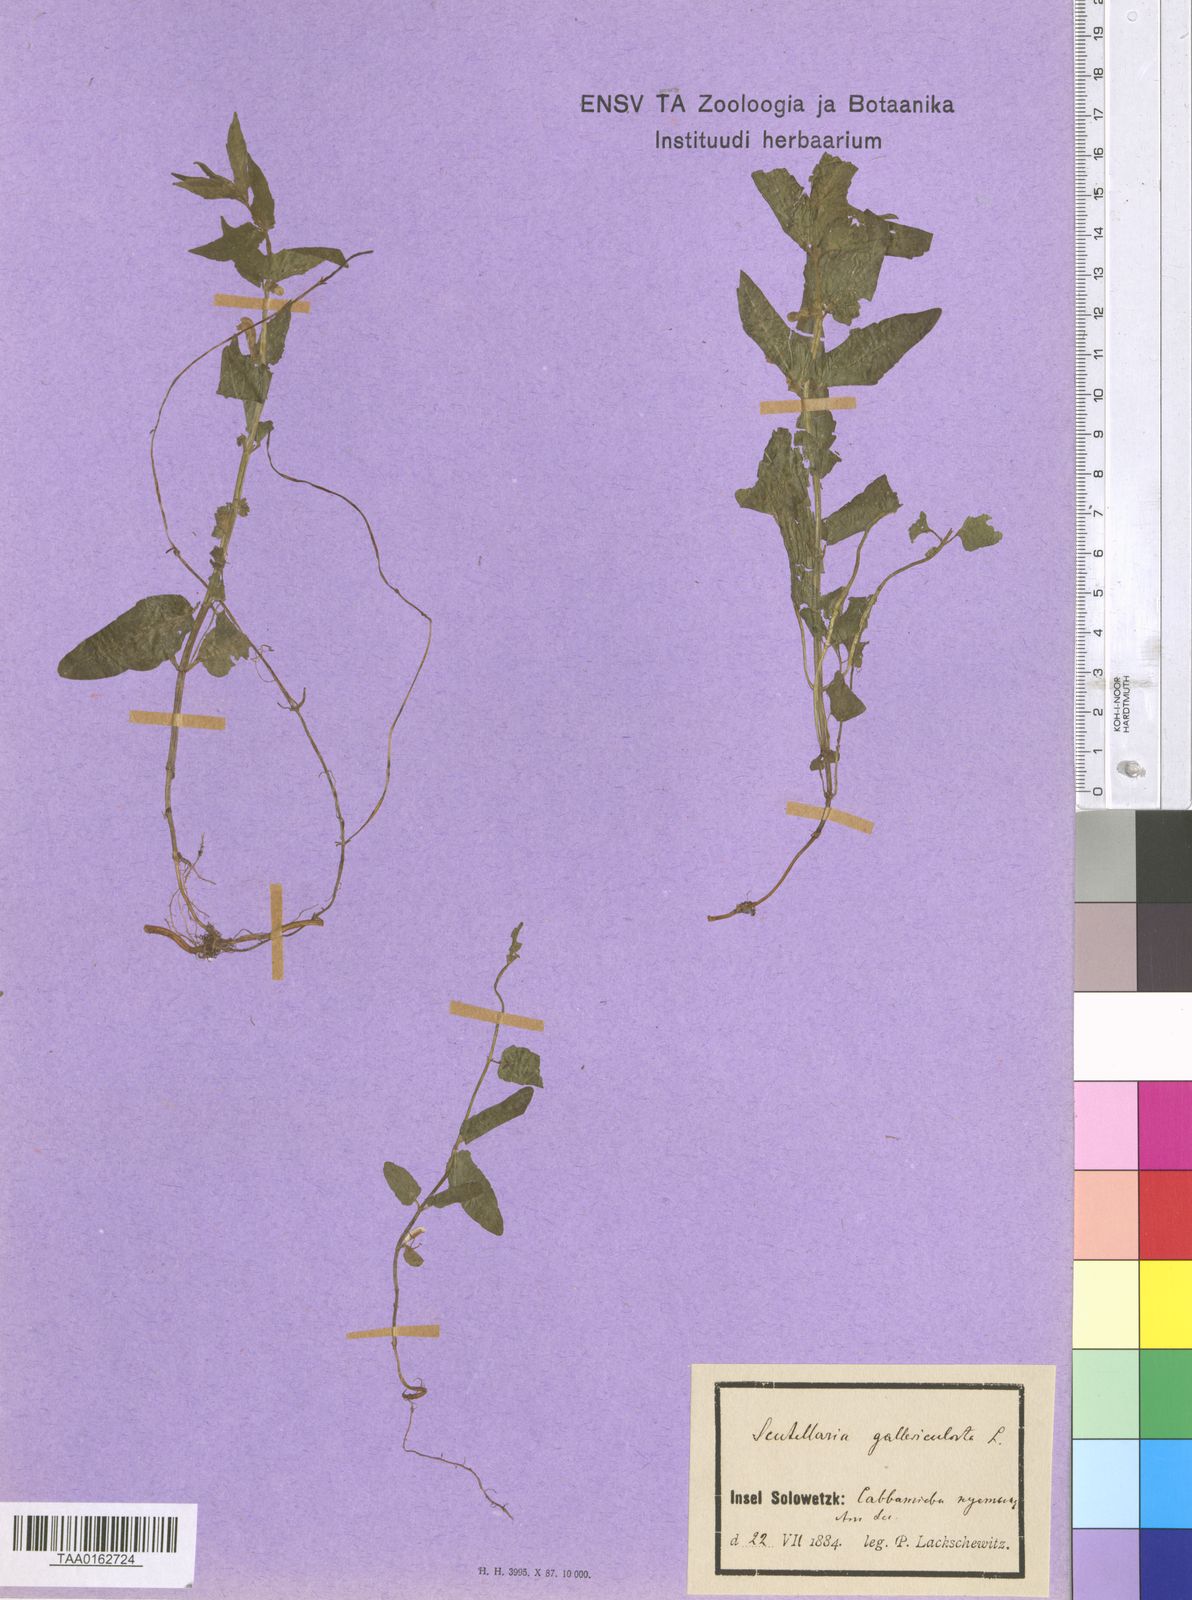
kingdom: Plantae
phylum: Tracheophyta
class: Magnoliopsida
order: Lamiales
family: Lamiaceae
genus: Scutellaria
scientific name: Scutellaria galericulata
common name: Skullcap
